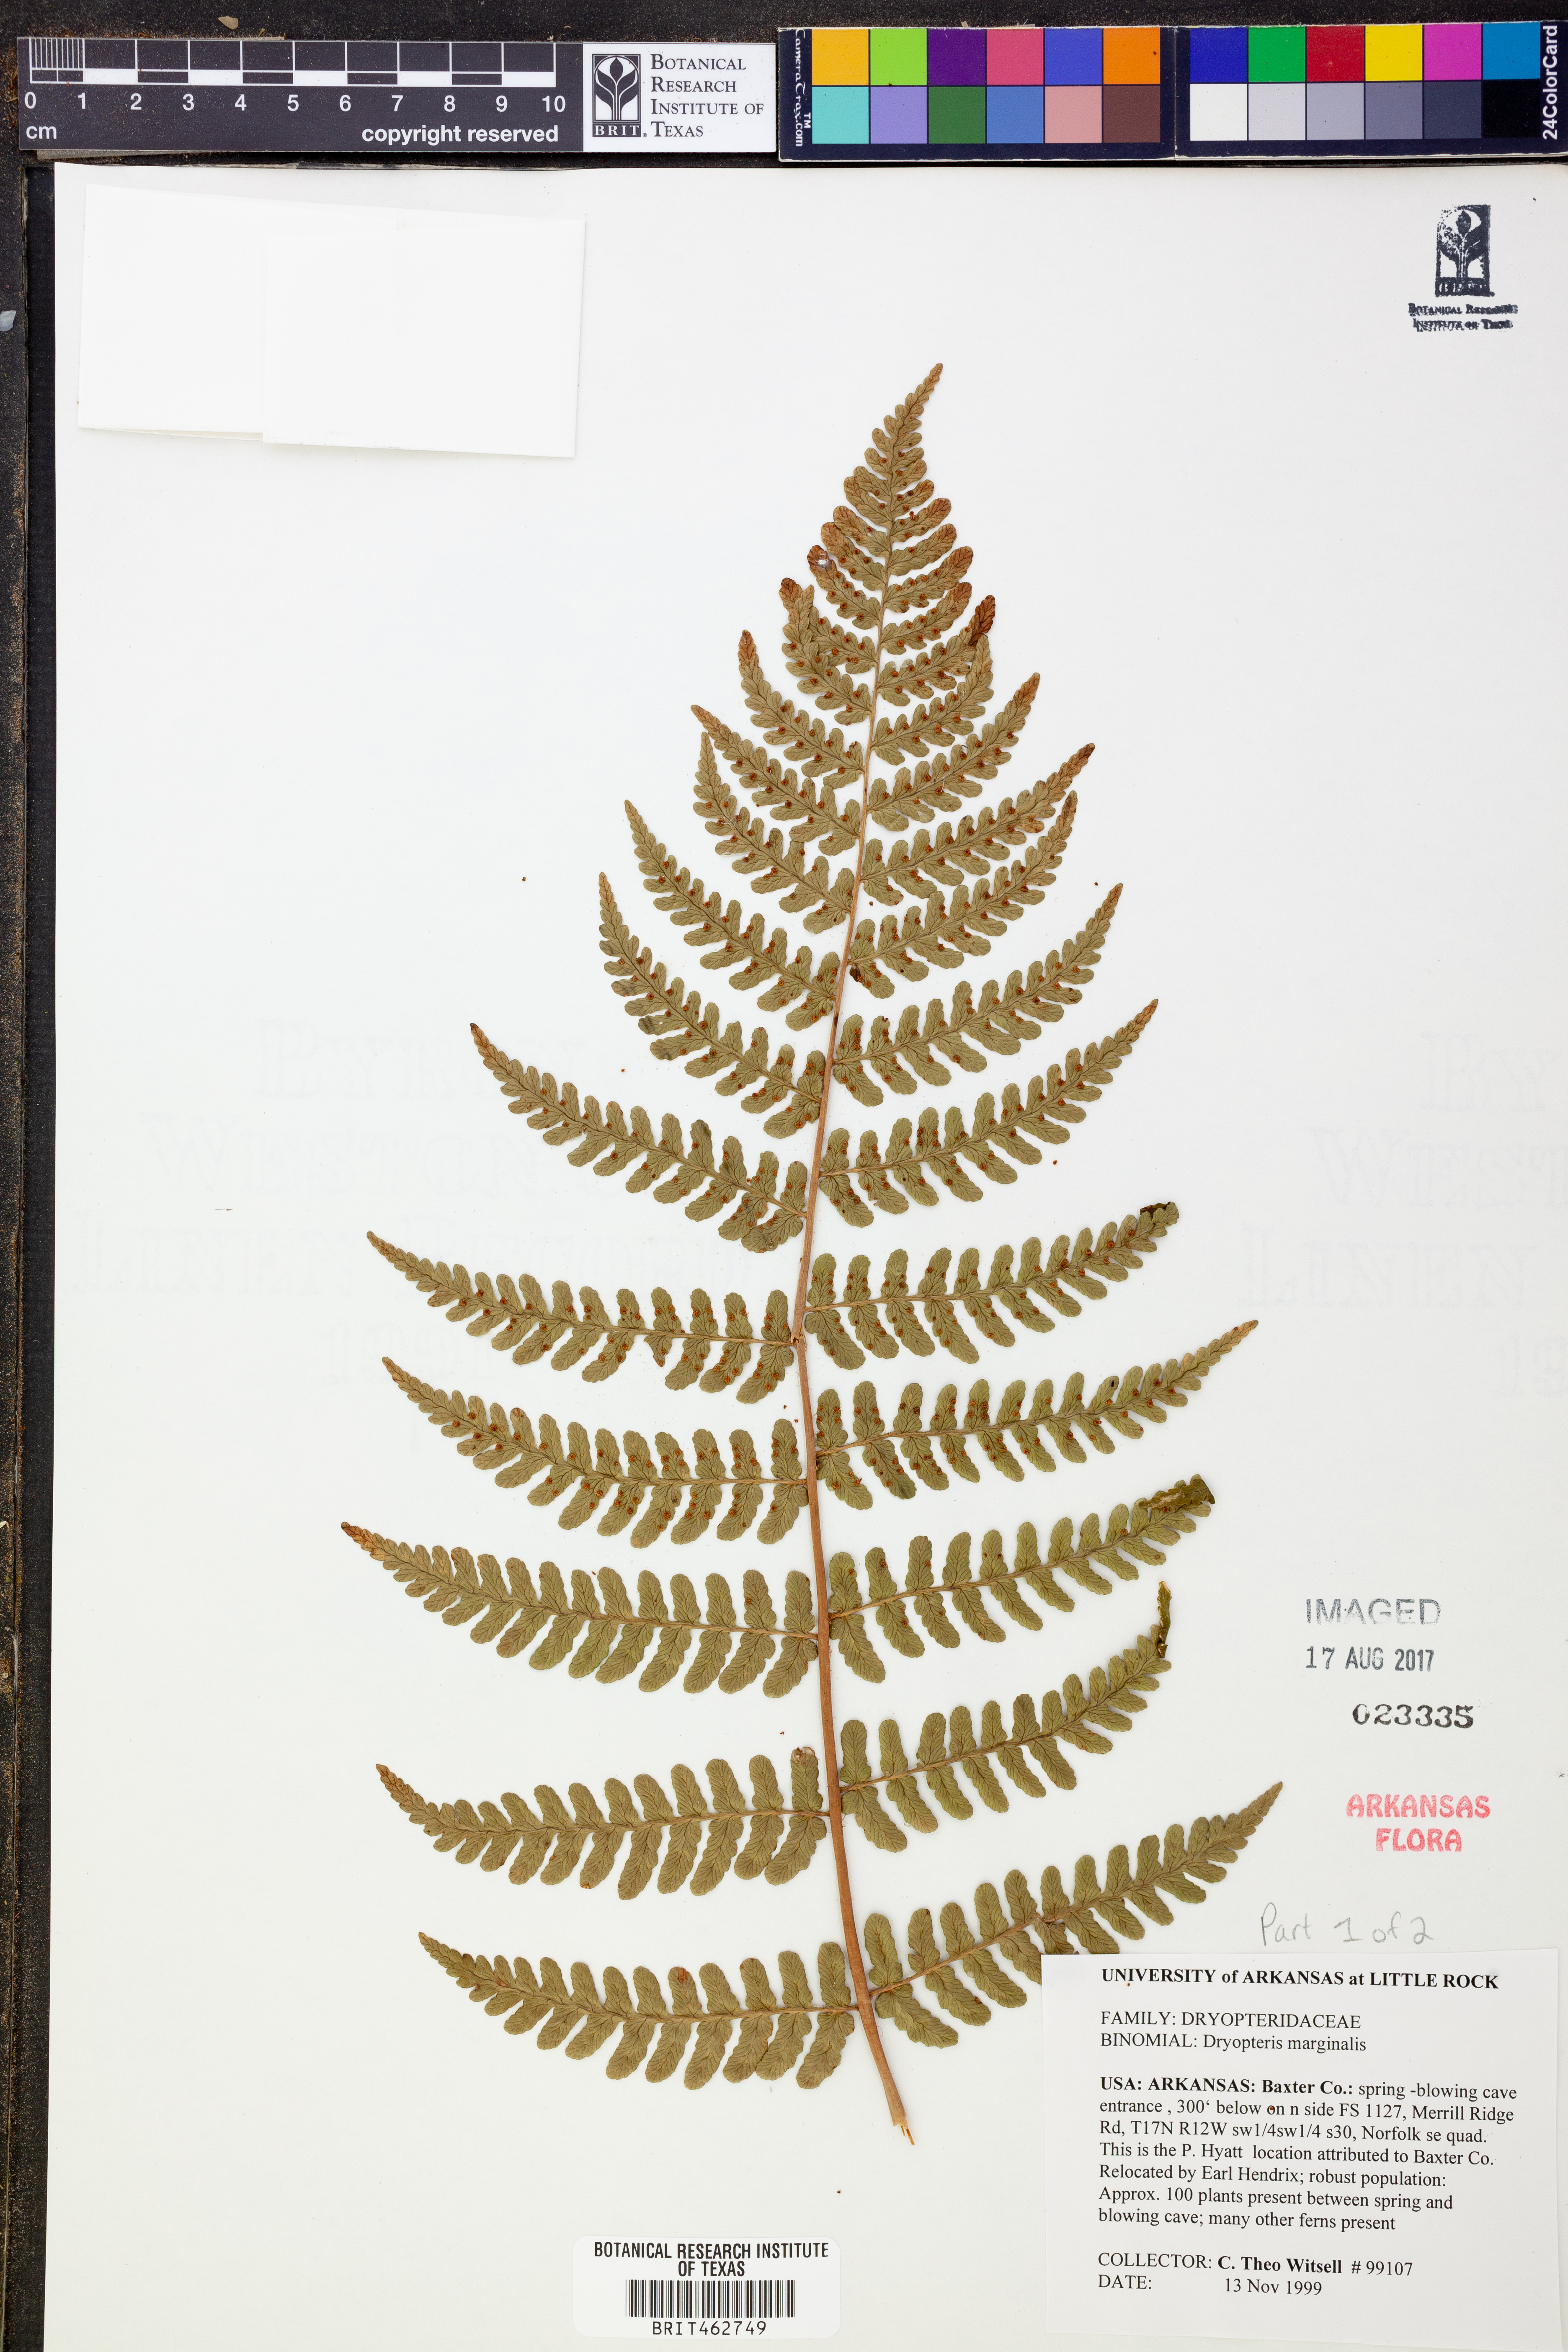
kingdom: Plantae
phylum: Tracheophyta
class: Polypodiopsida
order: Polypodiales
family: Dryopteridaceae
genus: Dryopteris
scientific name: Dryopteris marginalis
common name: Marginal wood fern
